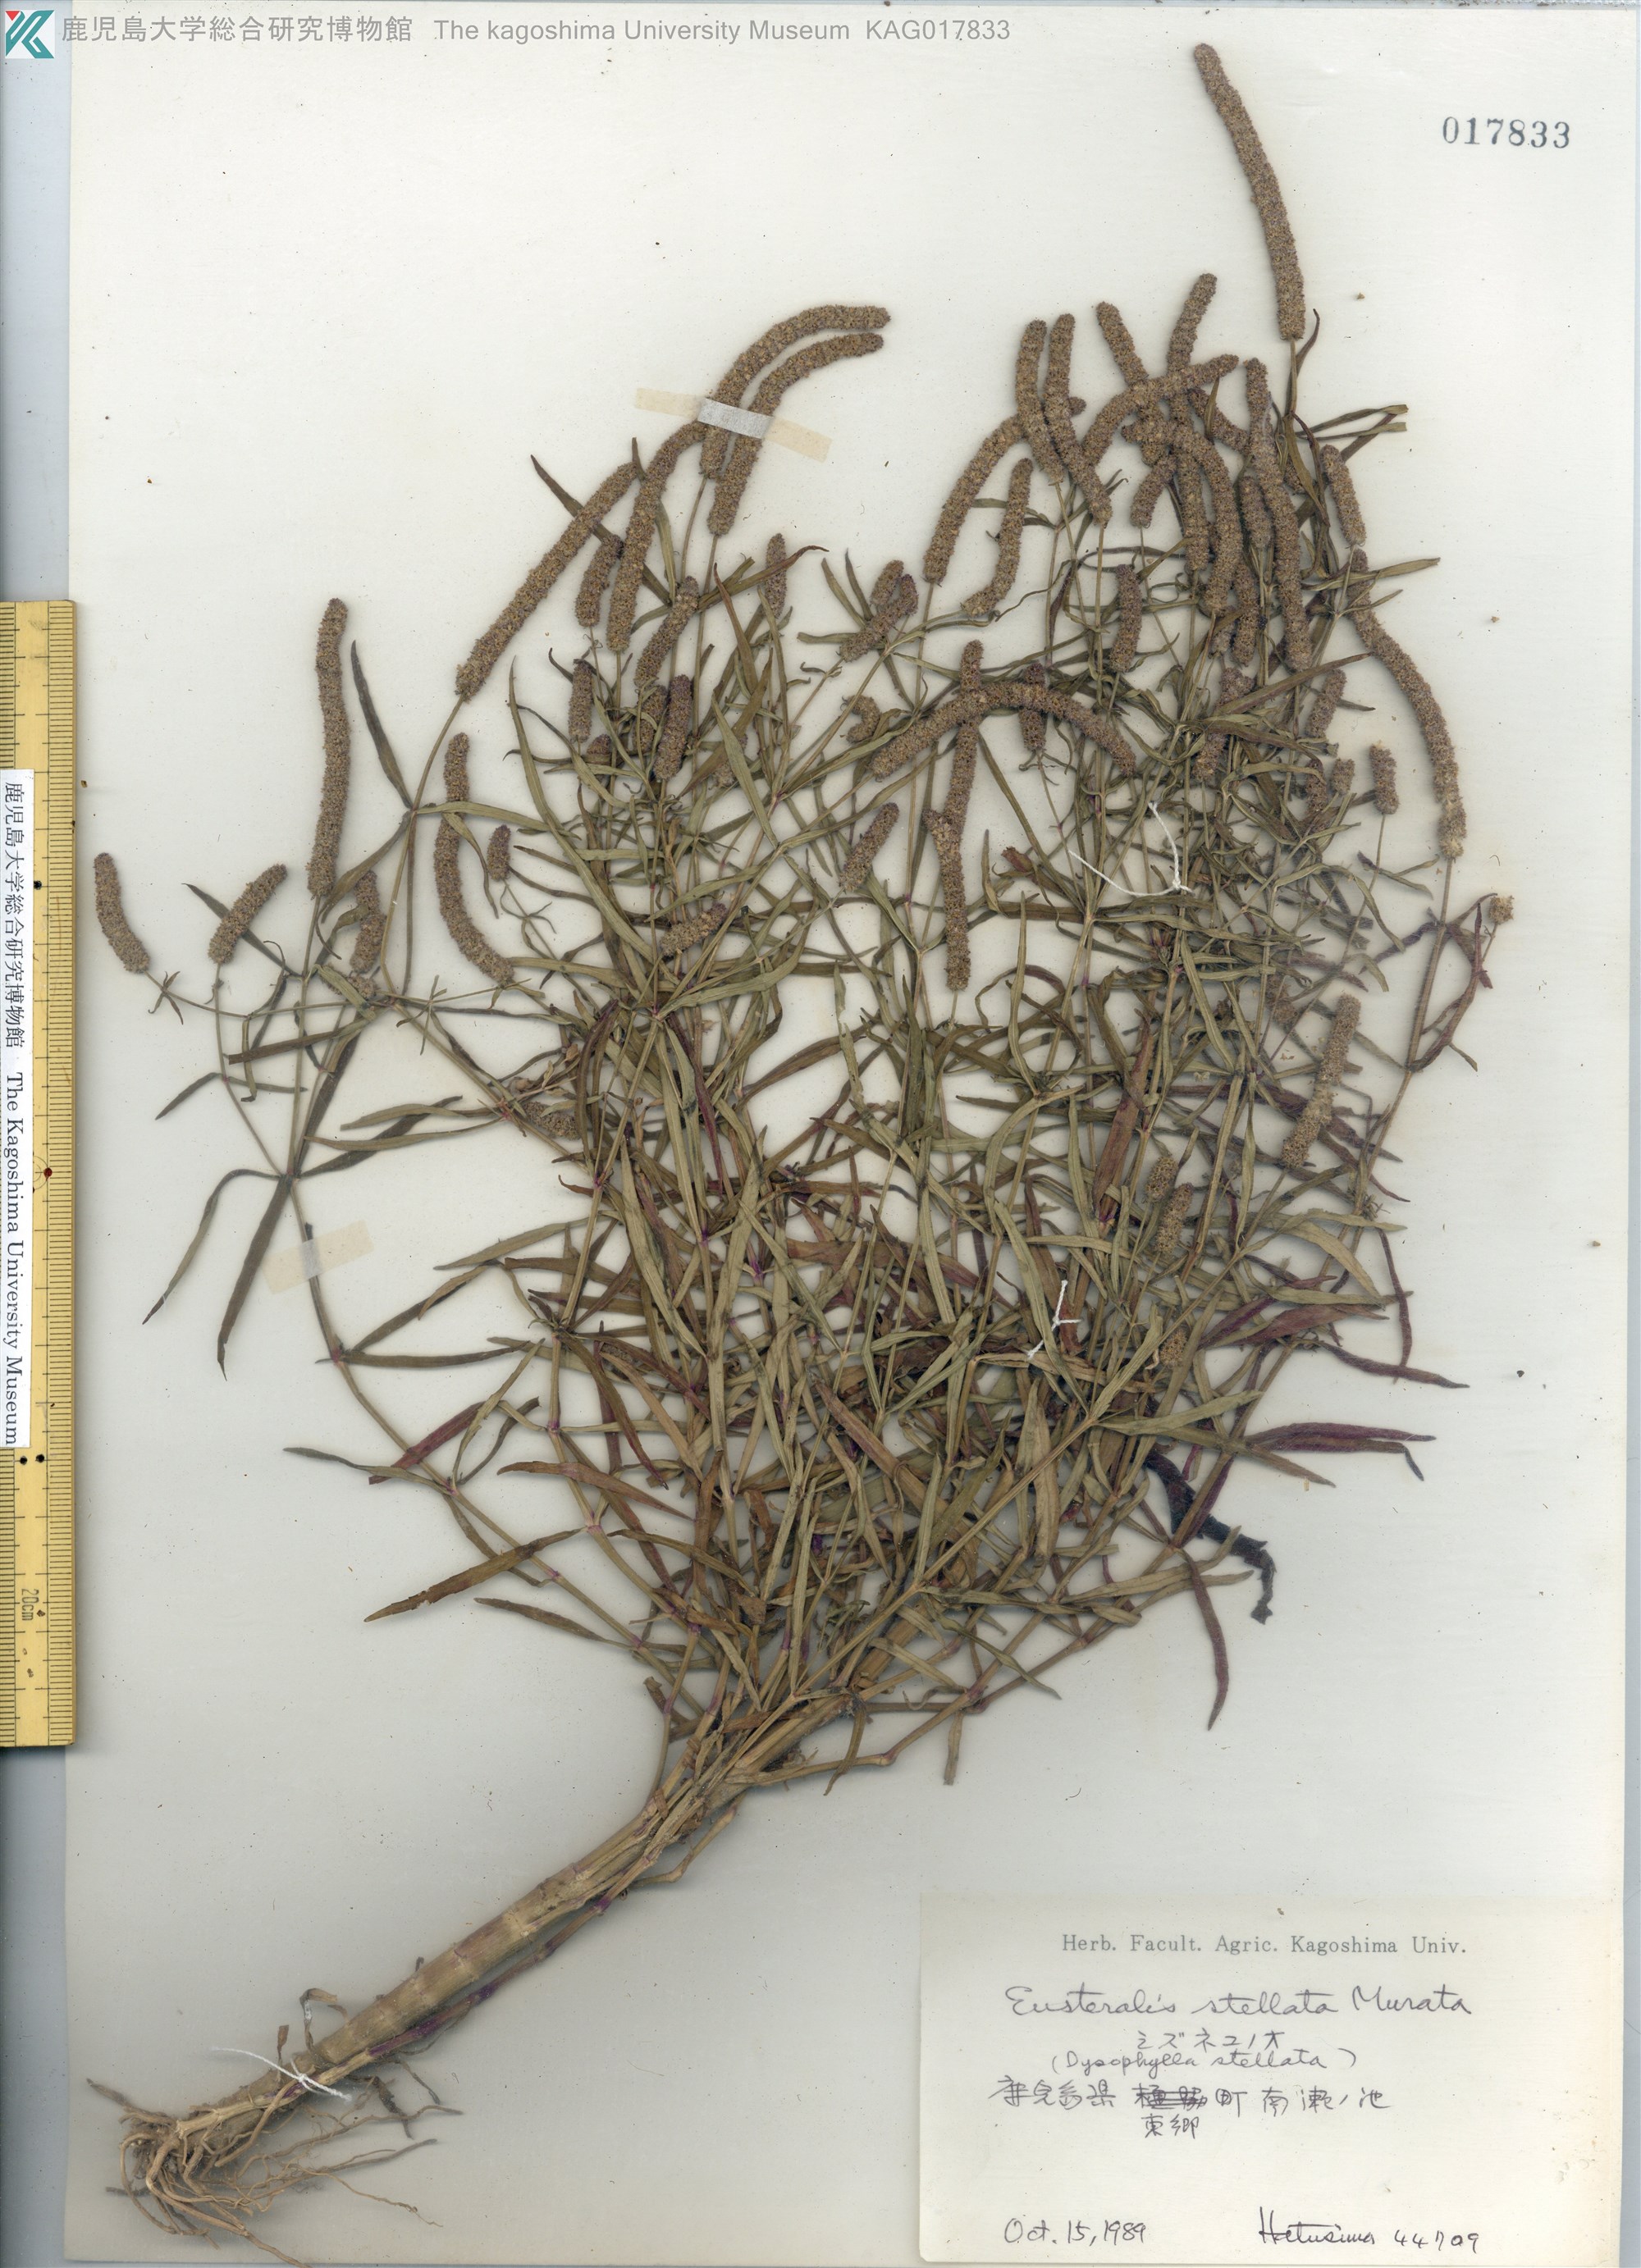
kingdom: Plantae
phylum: Tracheophyta
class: Magnoliopsida
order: Lamiales
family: Lamiaceae
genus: Pogostemon
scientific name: Pogostemon stellatus
